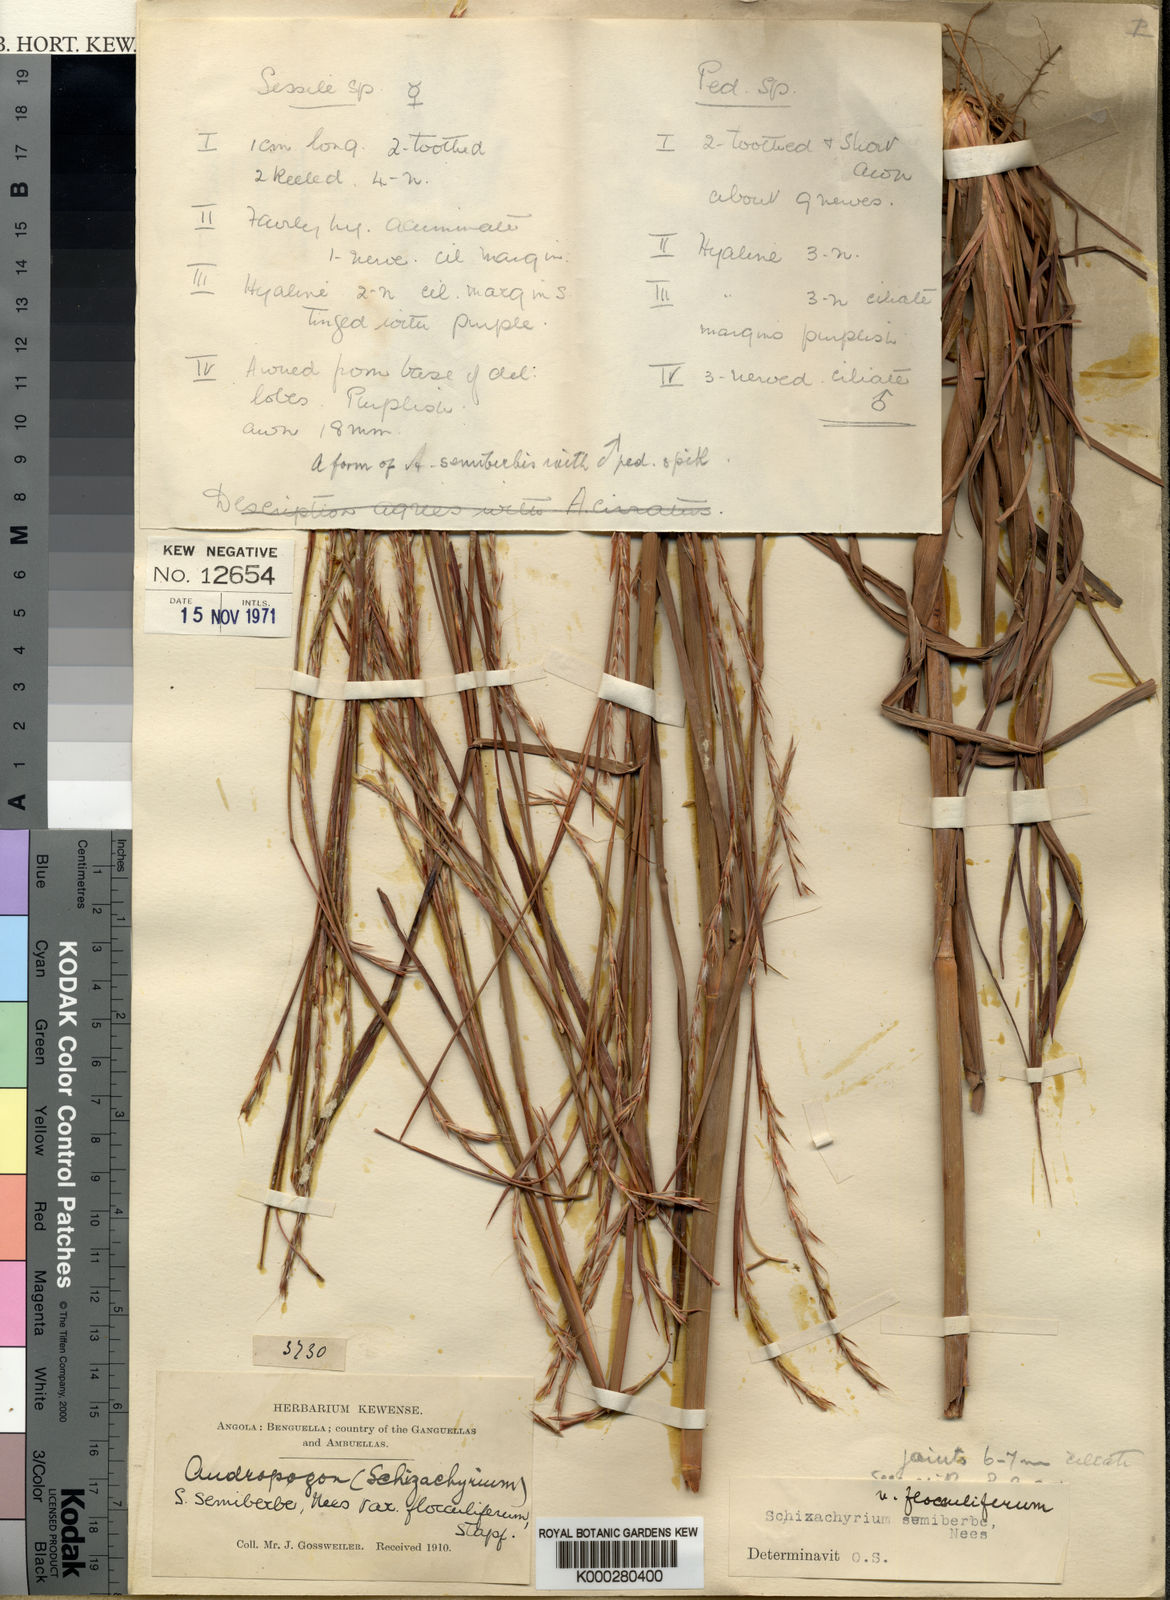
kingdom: Plantae
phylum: Tracheophyta
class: Liliopsida
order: Poales
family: Poaceae
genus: Schizachyrium
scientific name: Schizachyrium sanguineum
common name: Crimson bluestem
